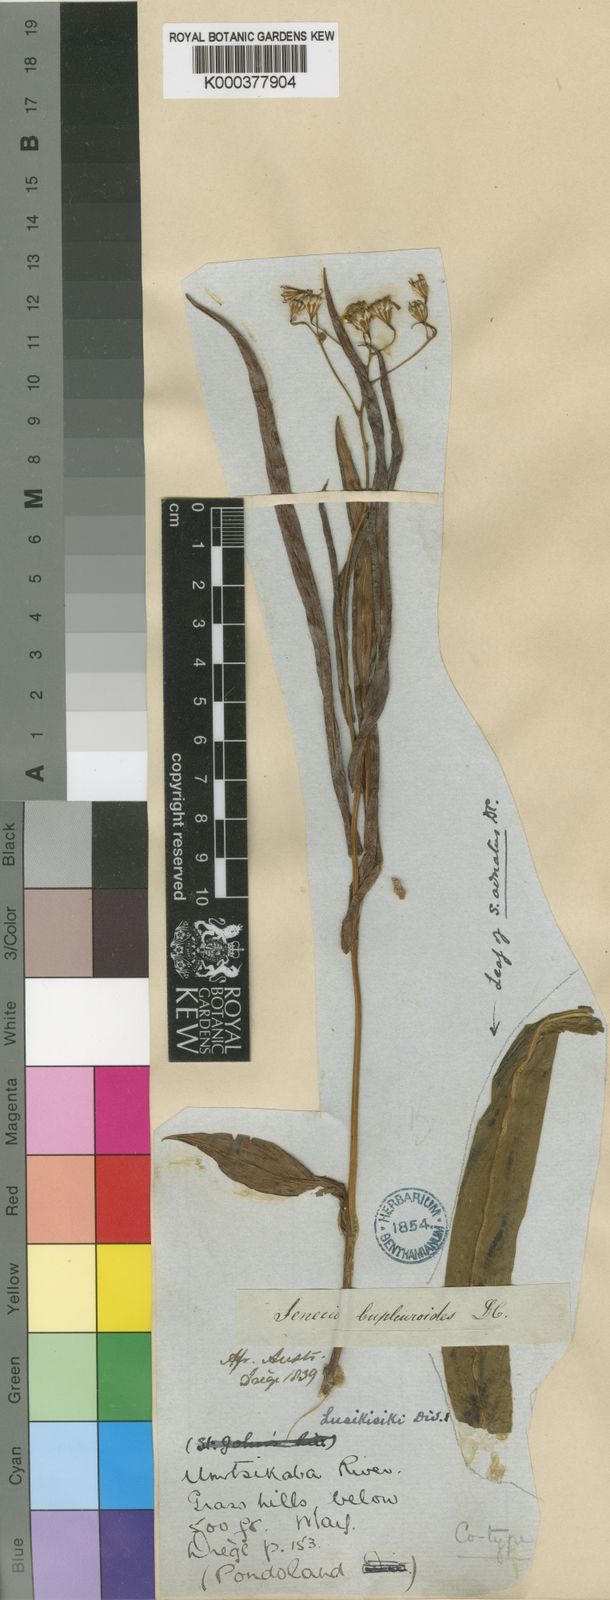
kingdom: Plantae
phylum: Tracheophyta
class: Magnoliopsida
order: Asterales
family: Asteraceae
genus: Senecio
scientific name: Senecio bupleuroides
